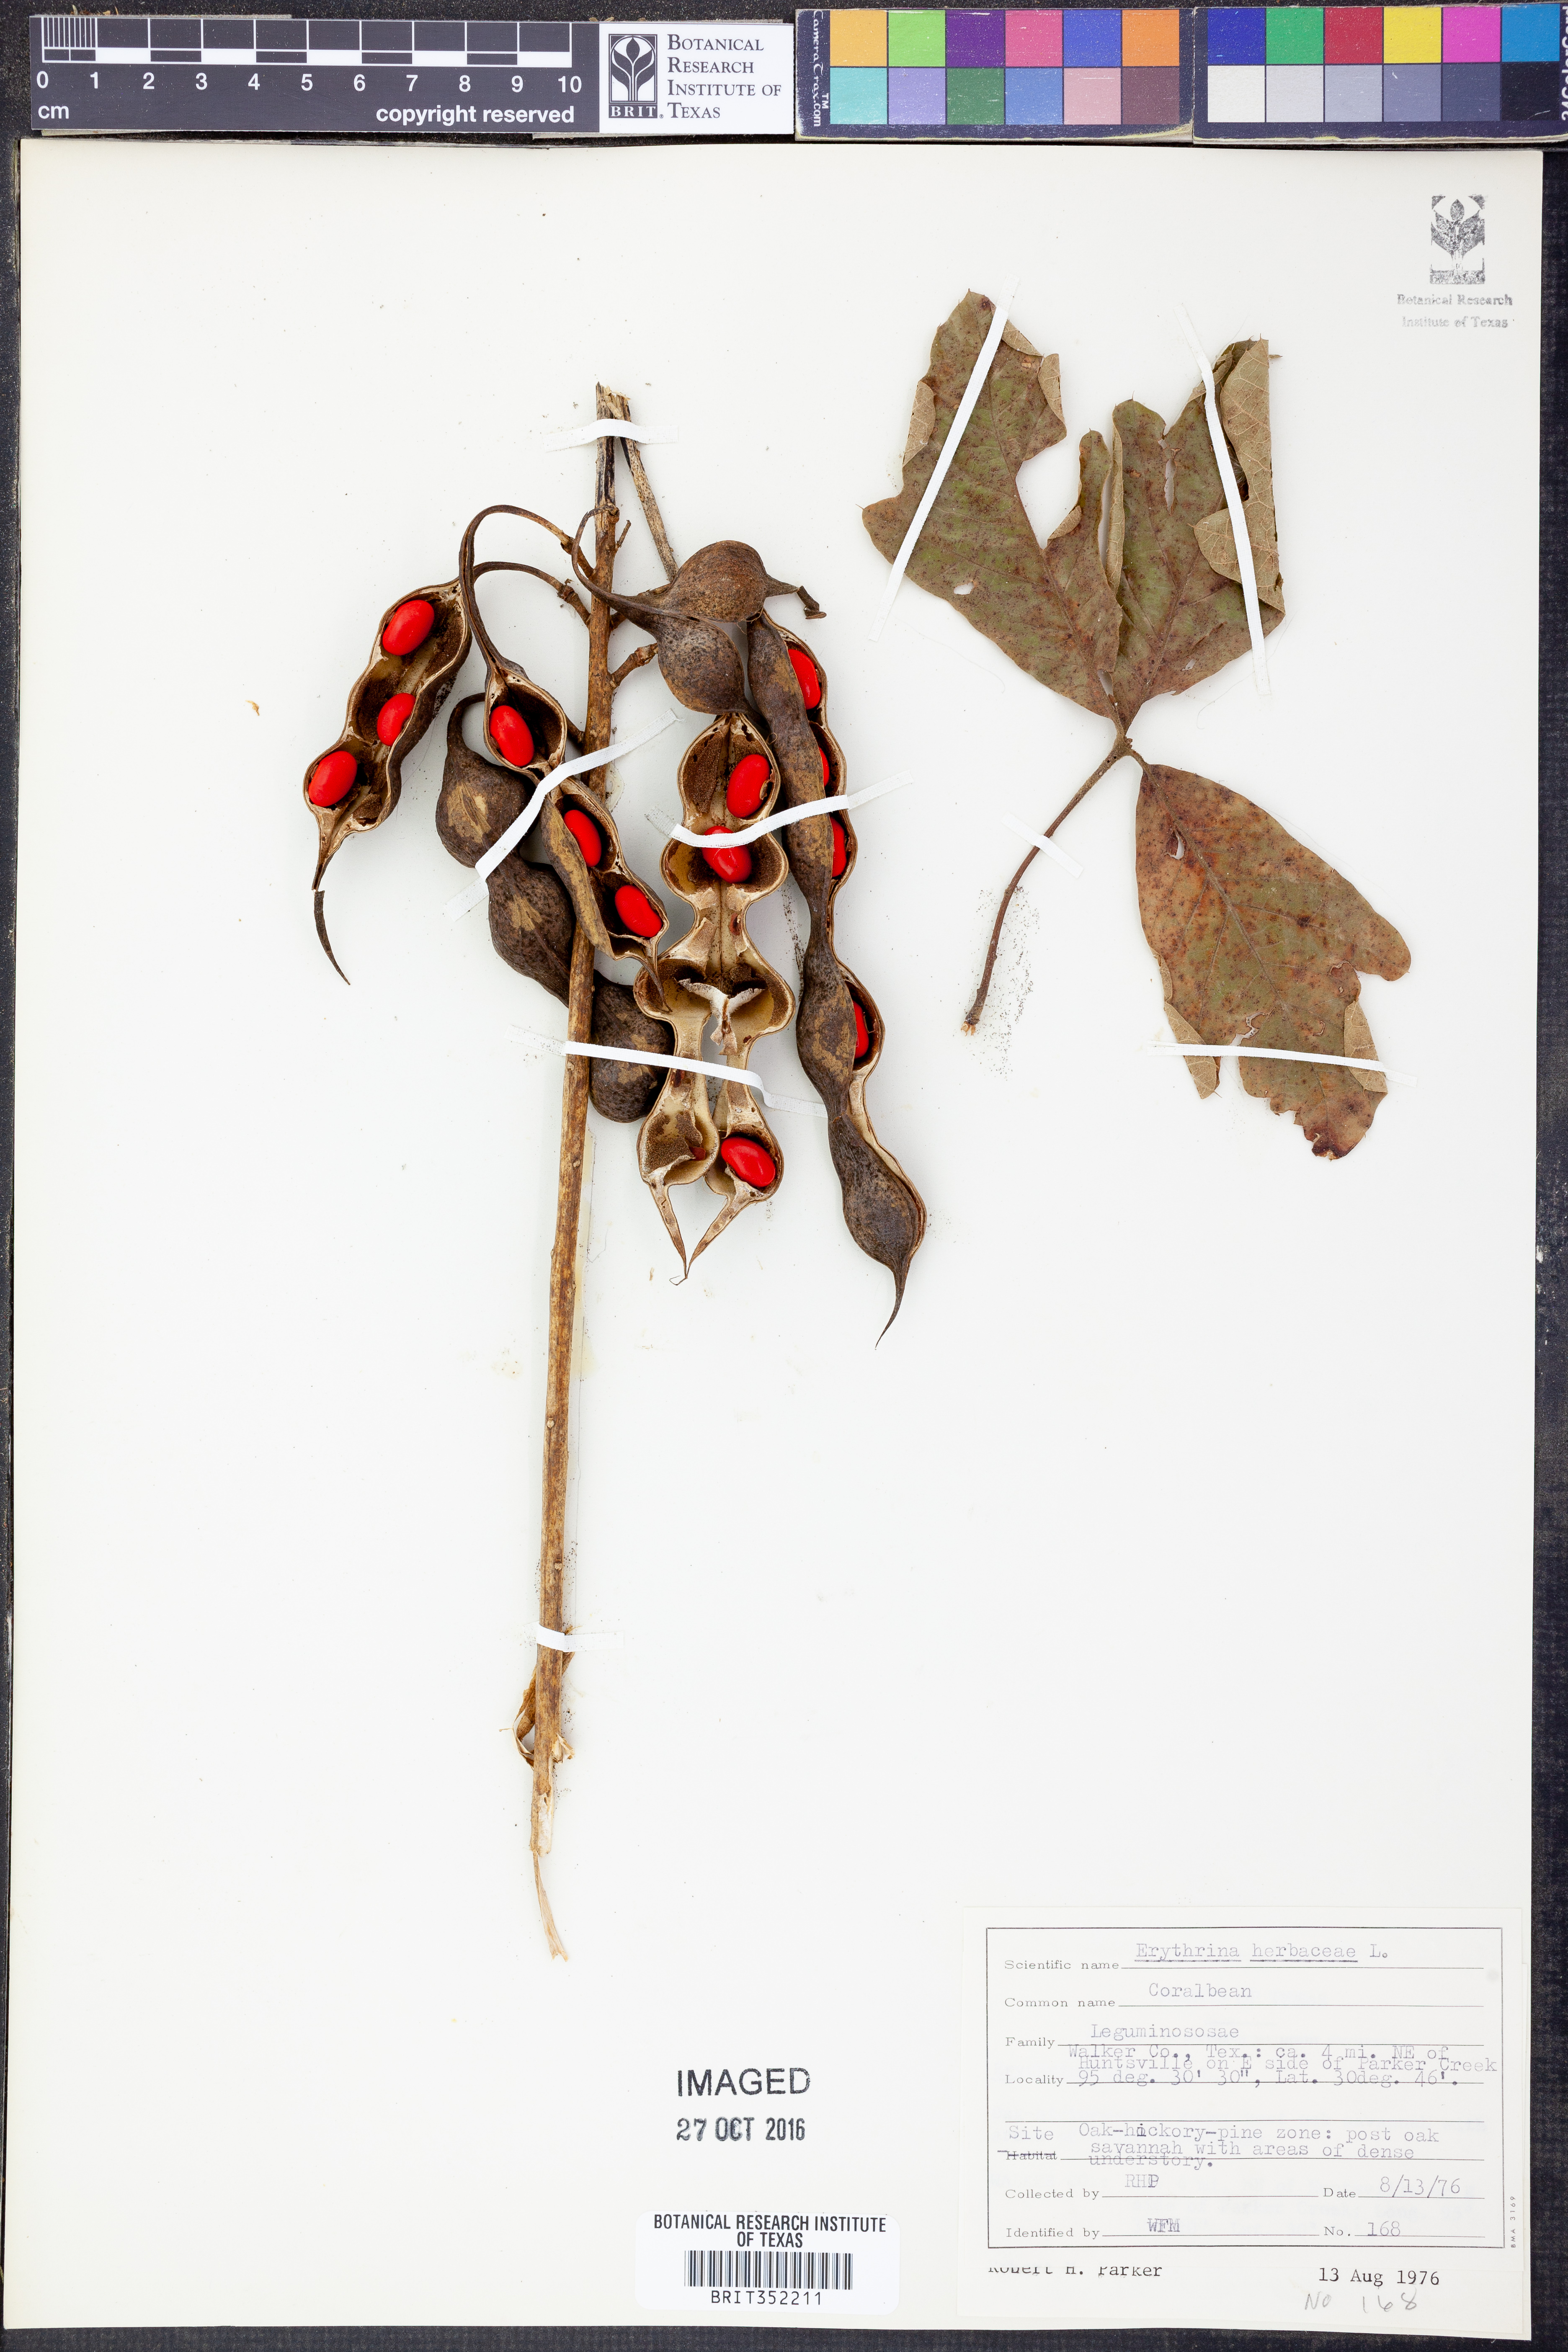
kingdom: Plantae
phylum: Tracheophyta
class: Magnoliopsida
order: Fabales
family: Fabaceae
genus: Erythrina
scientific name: Erythrina herbacea
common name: Coral-bean
